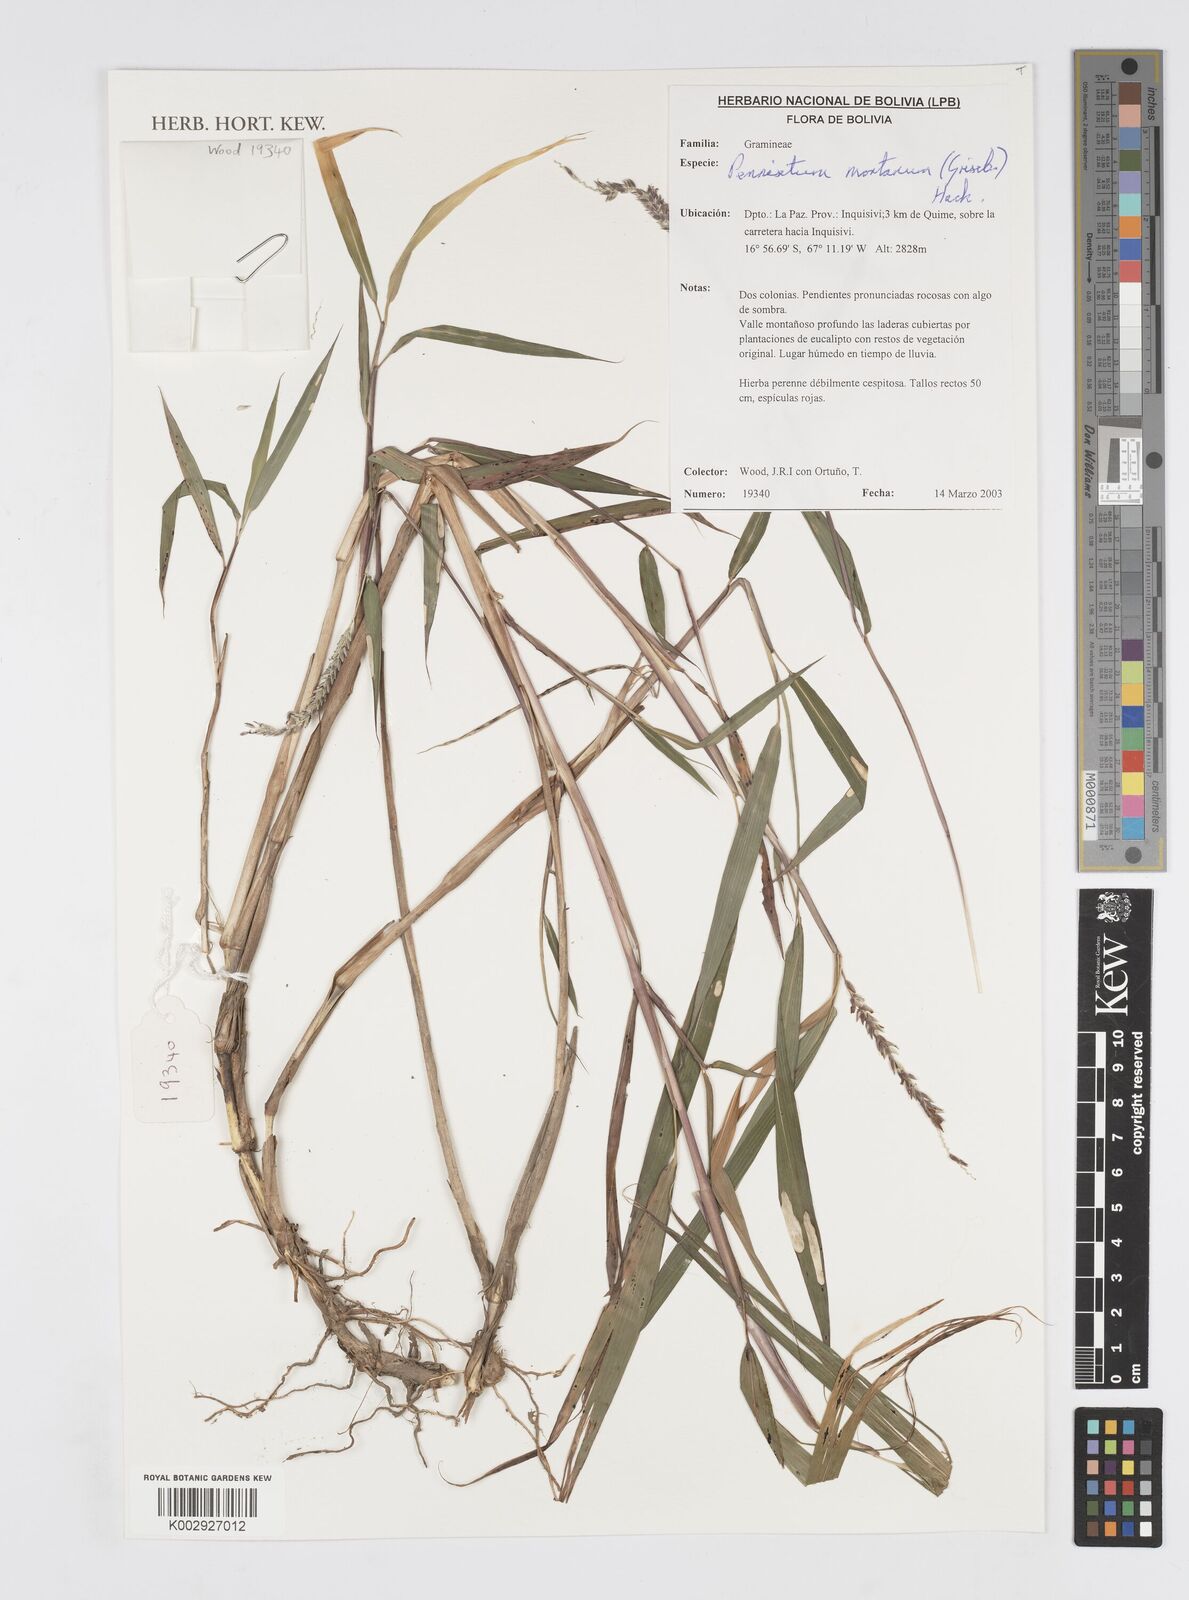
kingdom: Plantae
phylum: Tracheophyta
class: Liliopsida
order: Poales
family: Poaceae
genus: Cenchrus
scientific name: Cenchrus mutilatus
